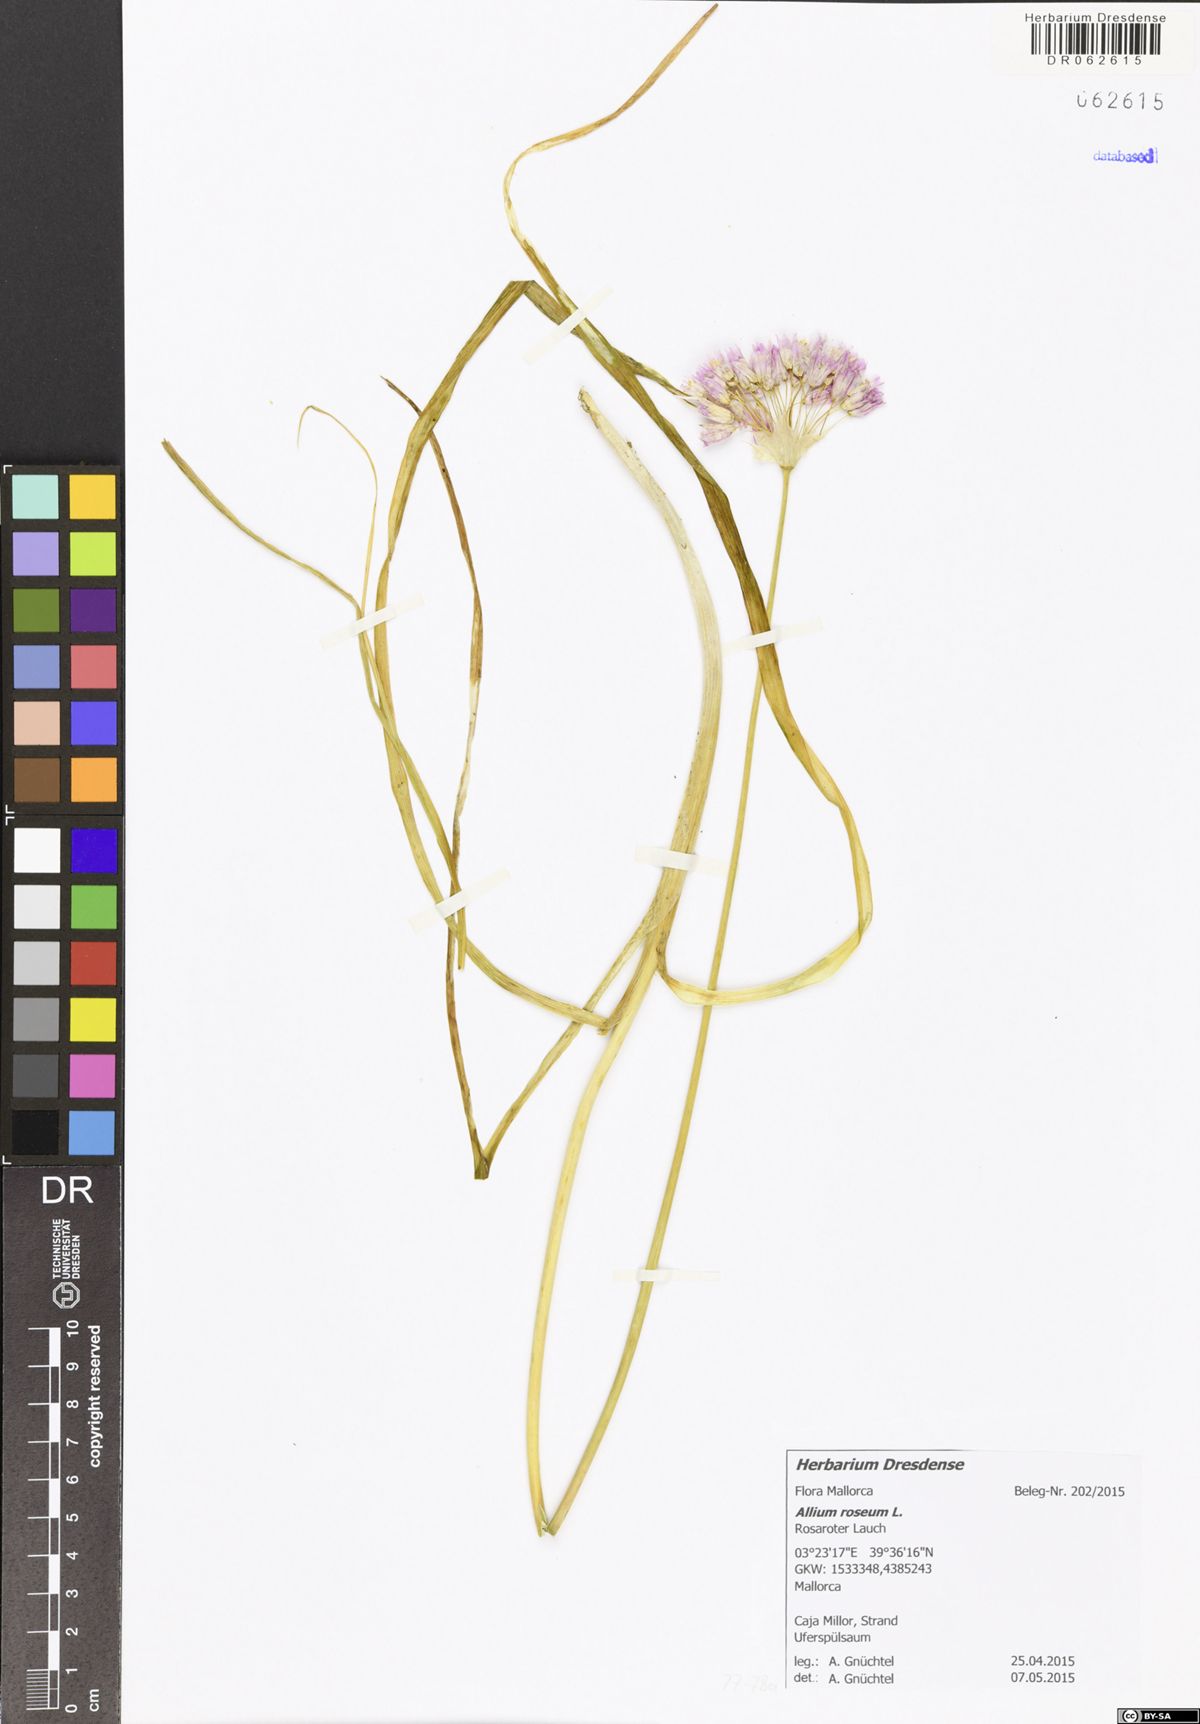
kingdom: Plantae
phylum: Tracheophyta
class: Liliopsida
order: Asparagales
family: Amaryllidaceae
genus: Allium
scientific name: Allium roseum
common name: Rosy garlic
